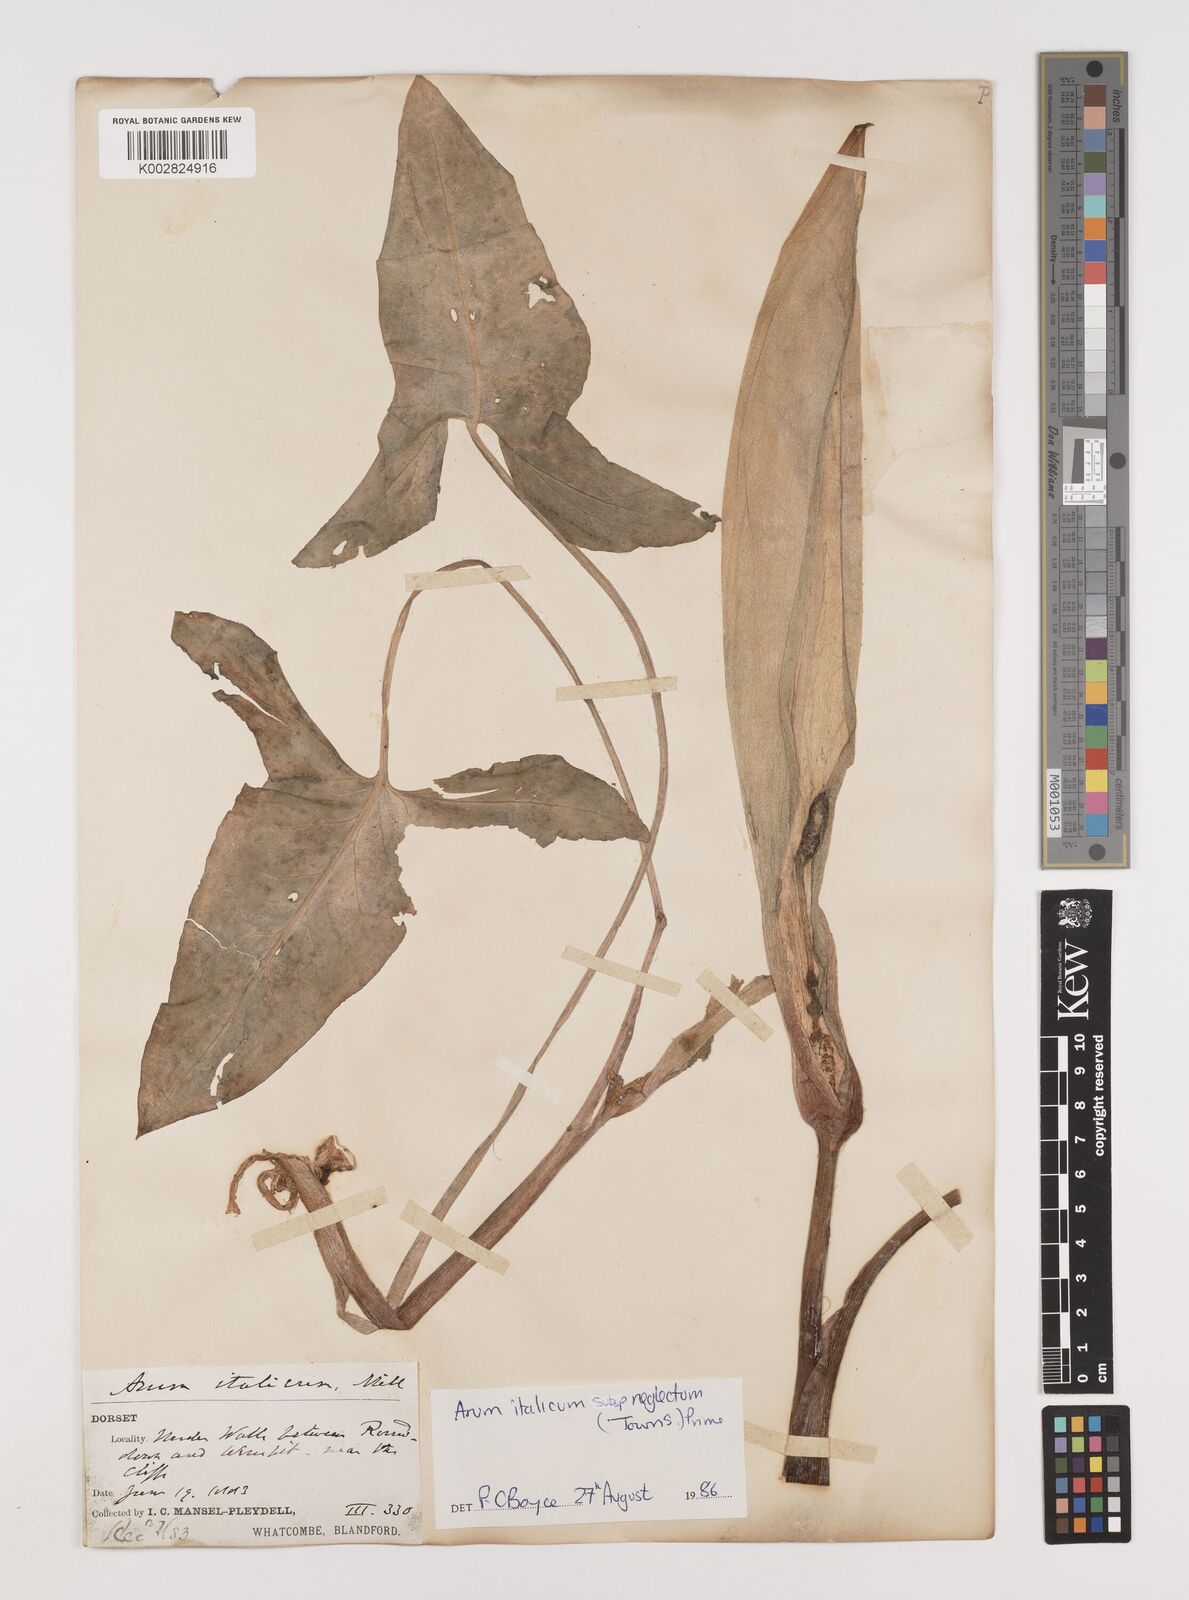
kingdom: Plantae
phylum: Tracheophyta
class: Liliopsida
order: Alismatales
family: Araceae
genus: Arum
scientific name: Arum italicum
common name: Italian lords-and-ladies
